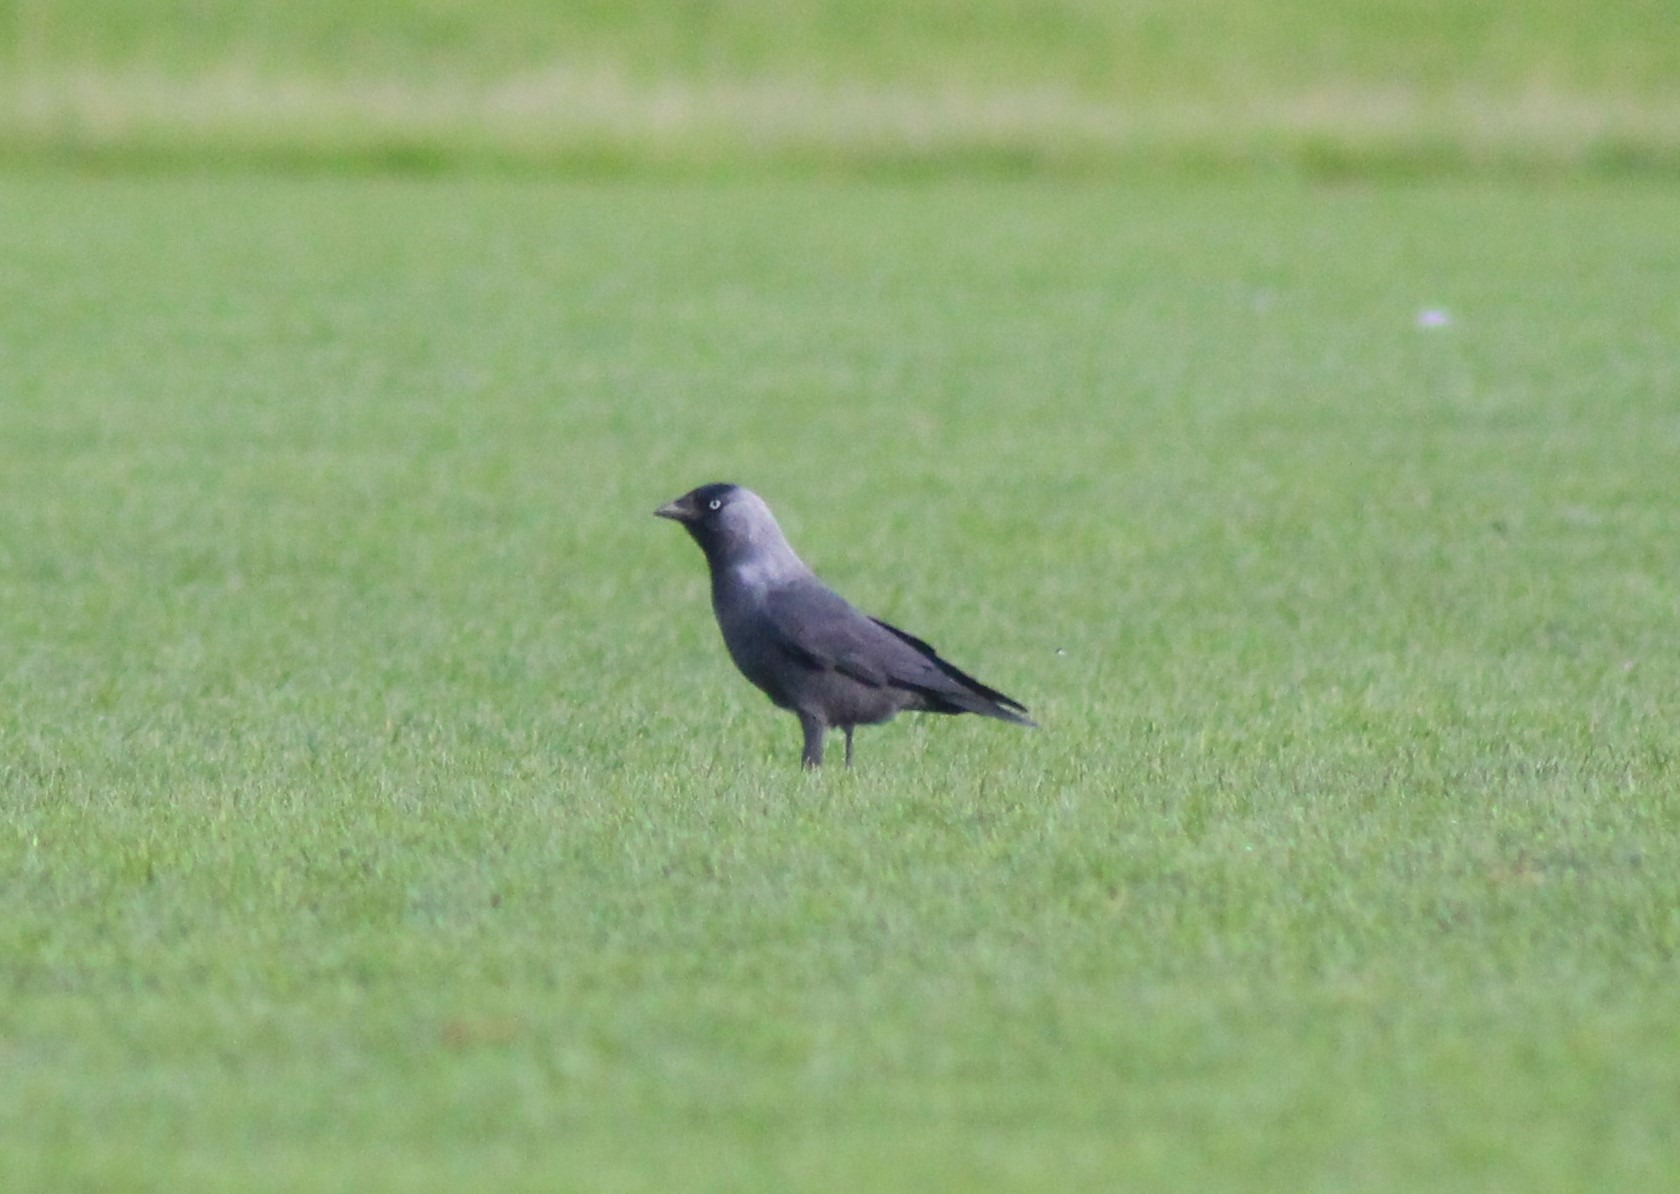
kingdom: Animalia
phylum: Chordata
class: Aves
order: Passeriformes
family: Corvidae
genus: Coloeus
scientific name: Coloeus monedula
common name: Allike
